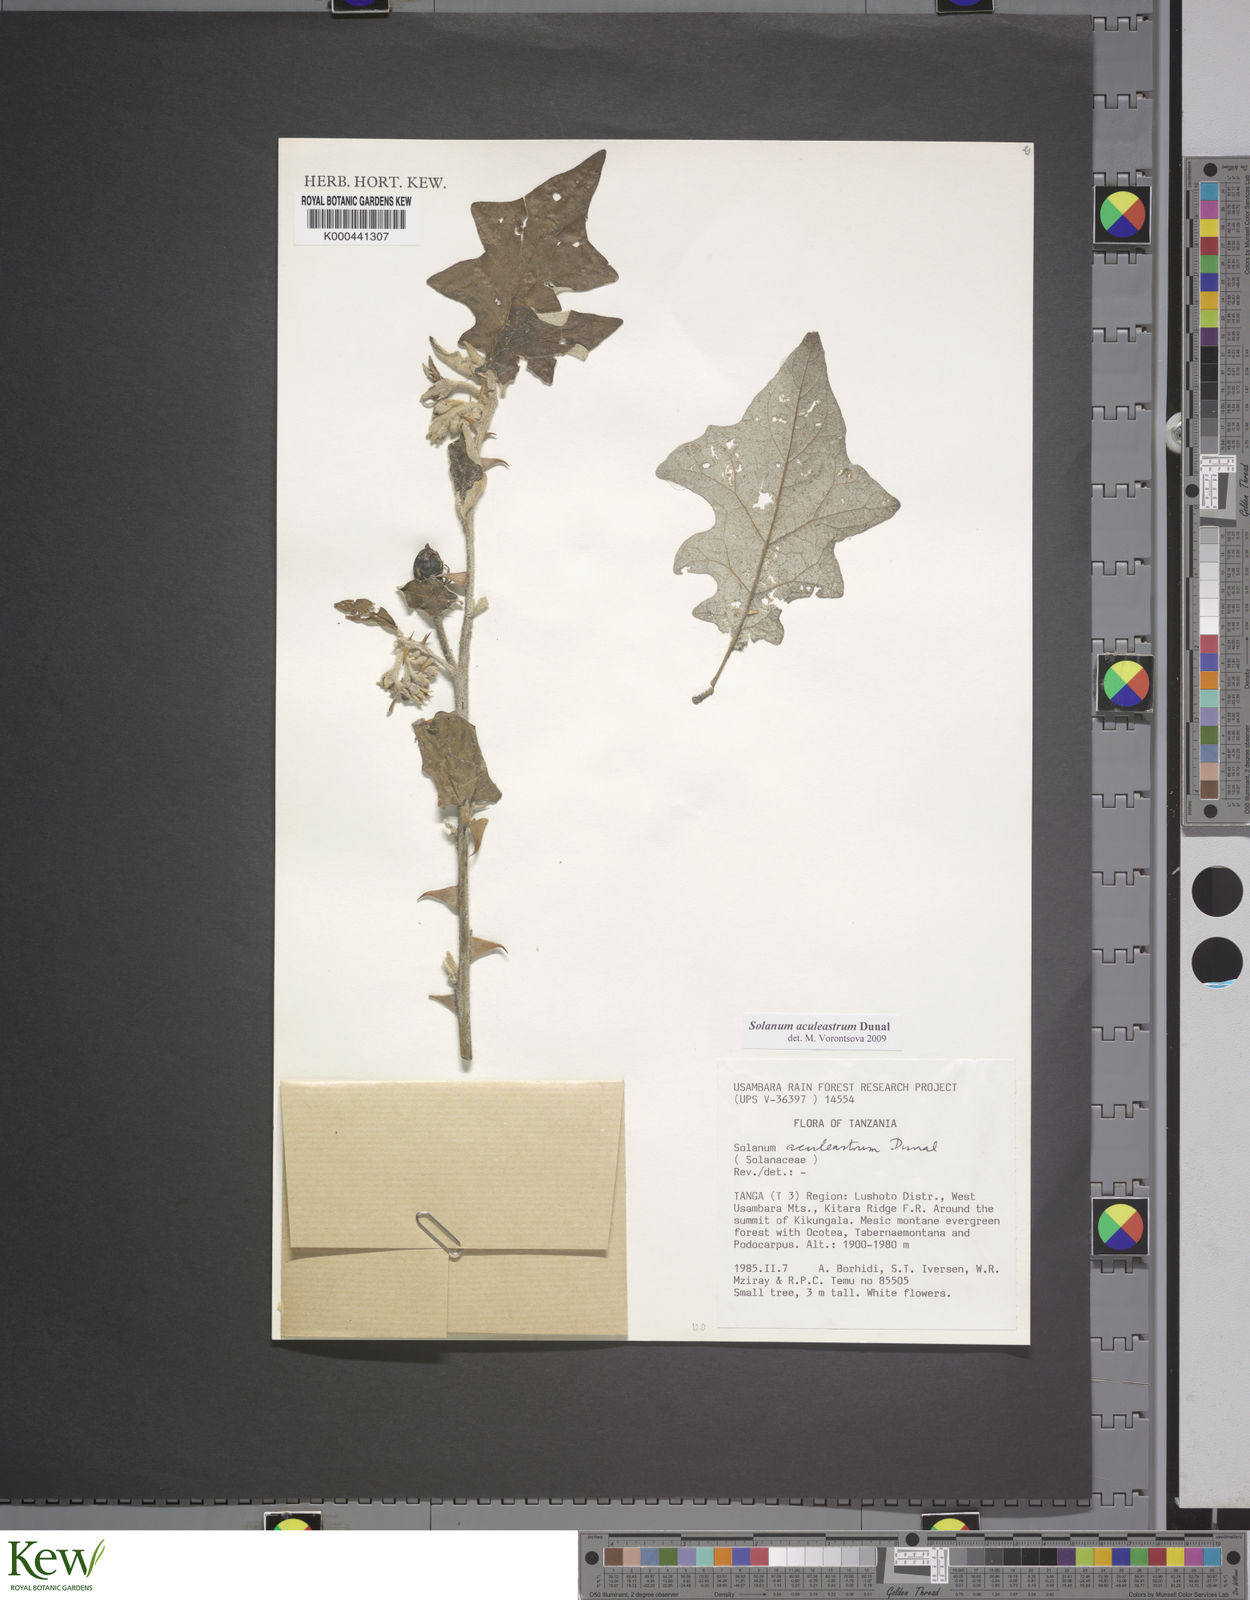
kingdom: Plantae
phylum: Tracheophyta
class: Magnoliopsida
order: Solanales
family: Solanaceae
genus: Solanum
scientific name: Solanum aculeastrum
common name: Goat bitter-apple
